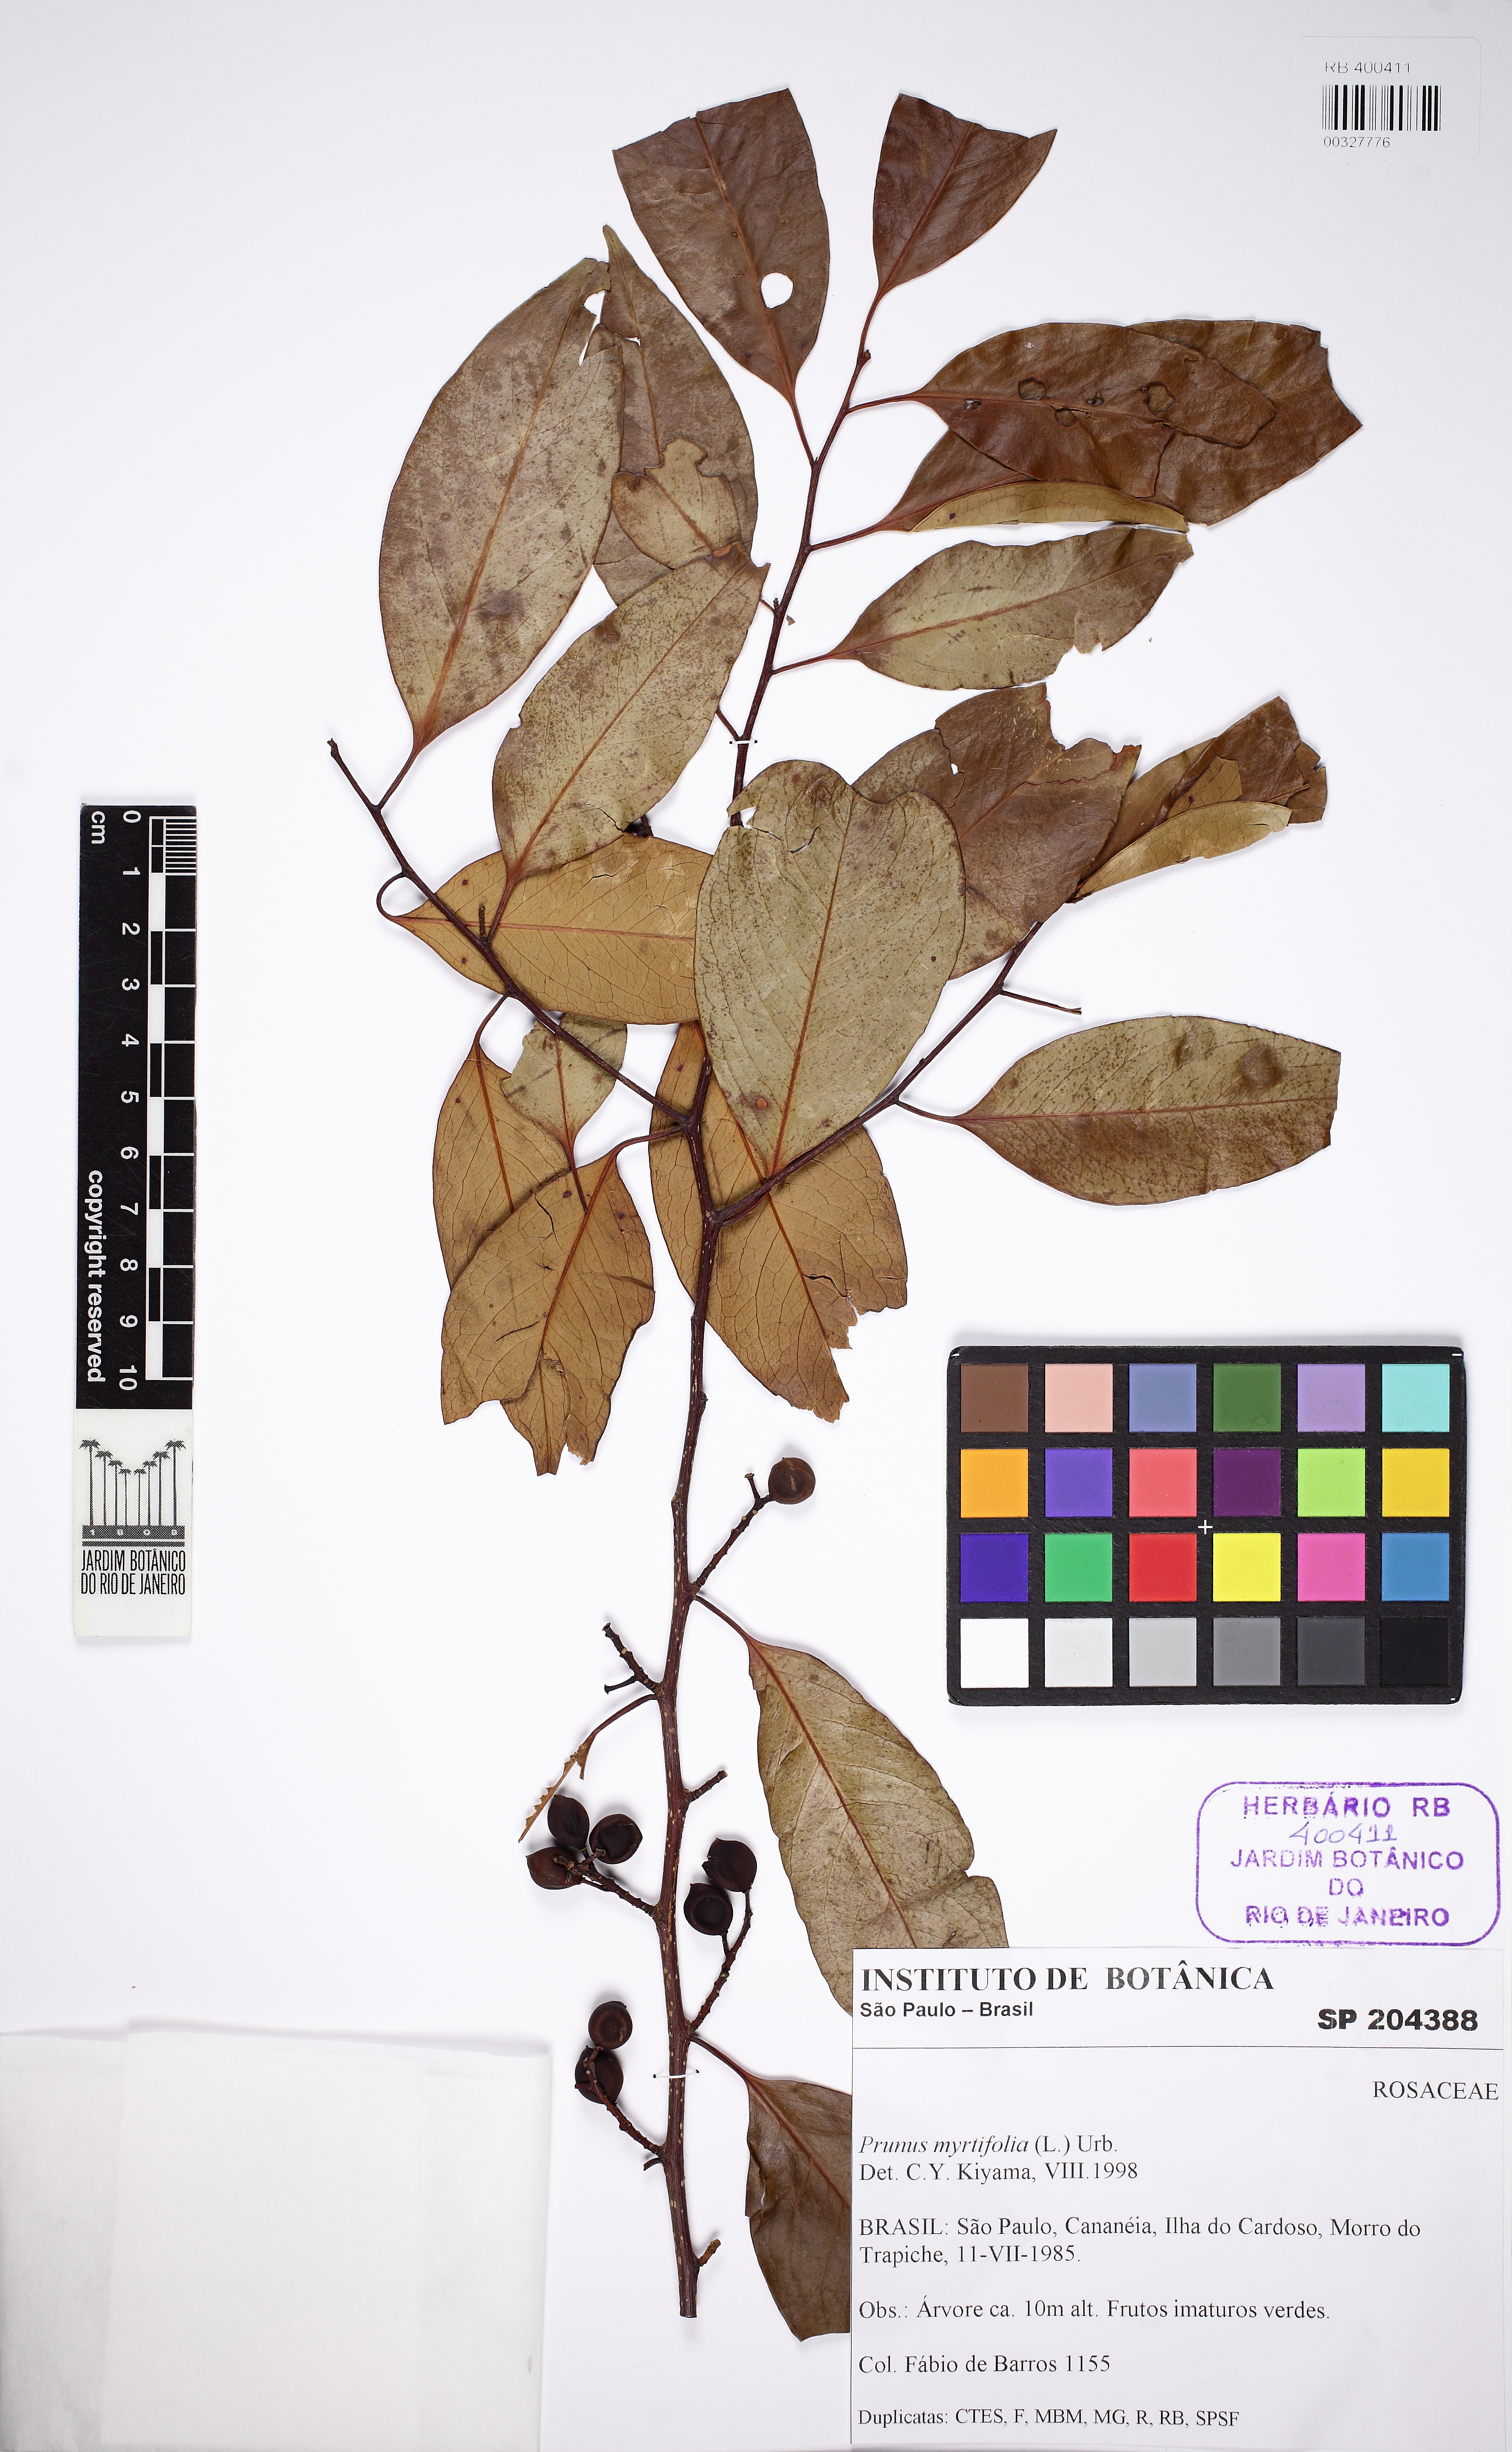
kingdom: Plantae
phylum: Tracheophyta
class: Magnoliopsida
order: Rosales
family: Rosaceae
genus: Prunus
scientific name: Prunus myrtifolia
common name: West indies cherry
